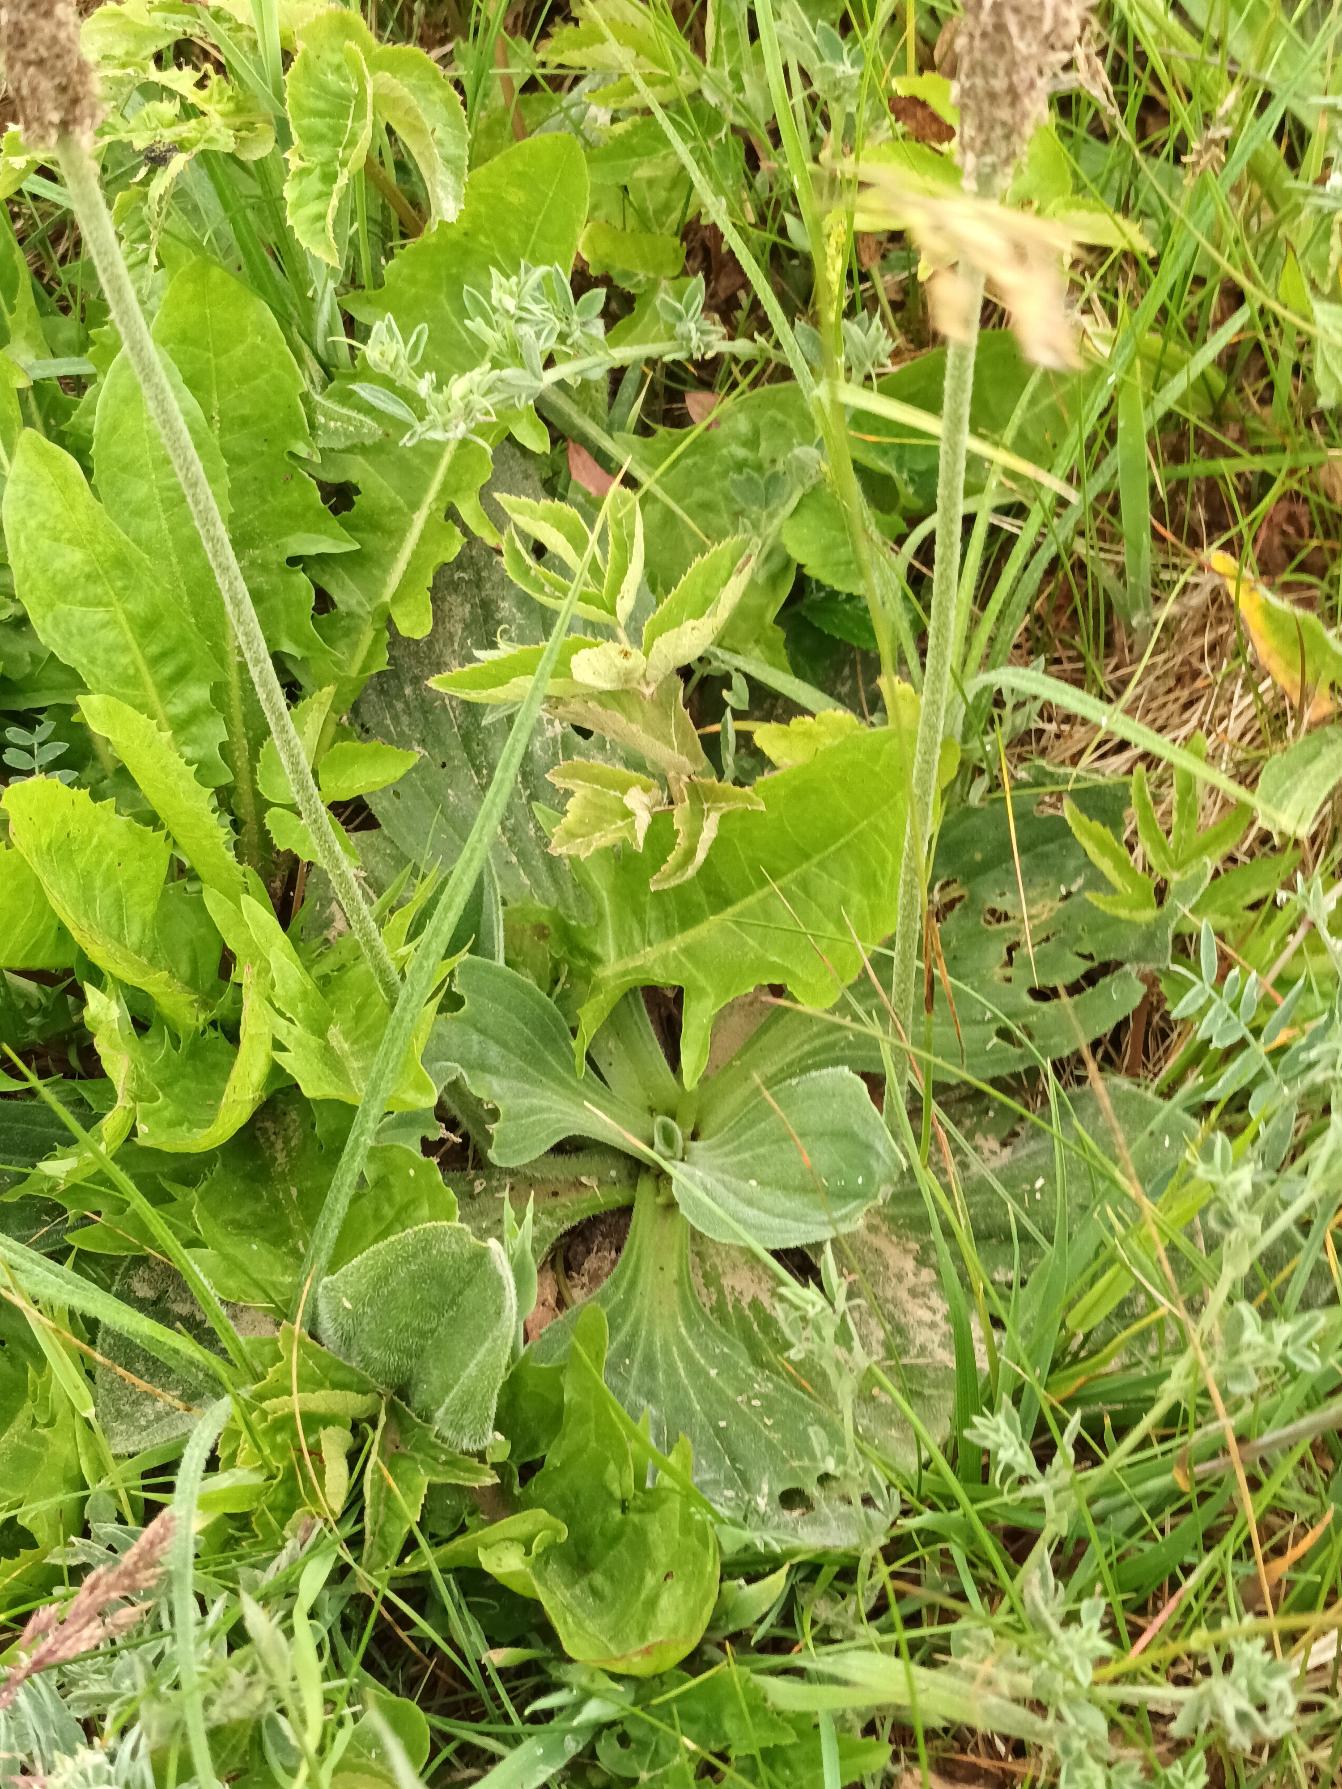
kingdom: Plantae
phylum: Tracheophyta
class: Magnoliopsida
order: Lamiales
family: Plantaginaceae
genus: Plantago
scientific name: Plantago media
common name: Dunet vejbred
